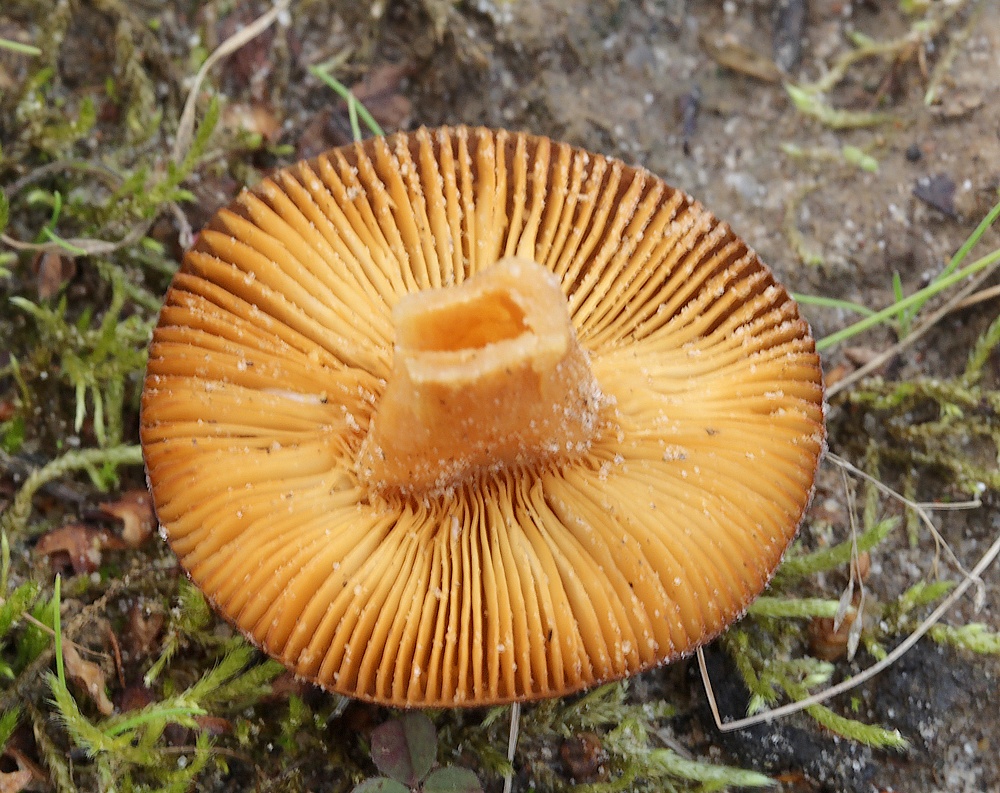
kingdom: Fungi
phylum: Basidiomycota
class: Agaricomycetes
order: Agaricales
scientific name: Agaricales
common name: champignonordenen
